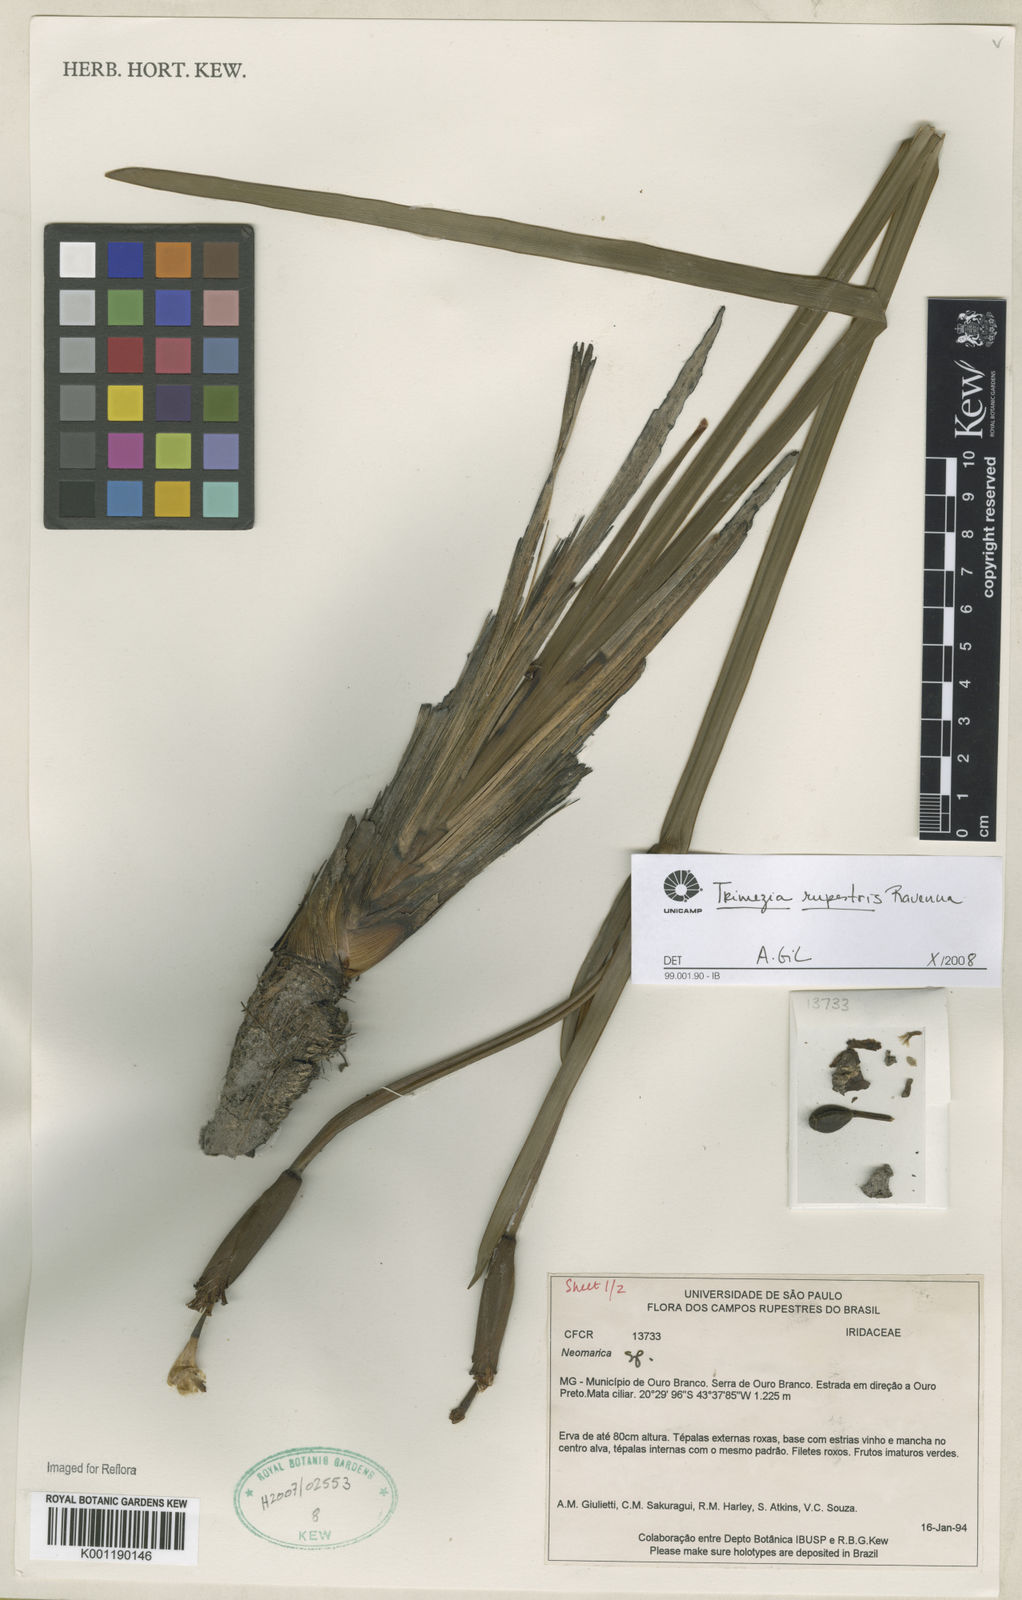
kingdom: Plantae
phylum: Tracheophyta
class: Liliopsida
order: Asparagales
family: Iridaceae
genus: Trimezia
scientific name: Trimezia
